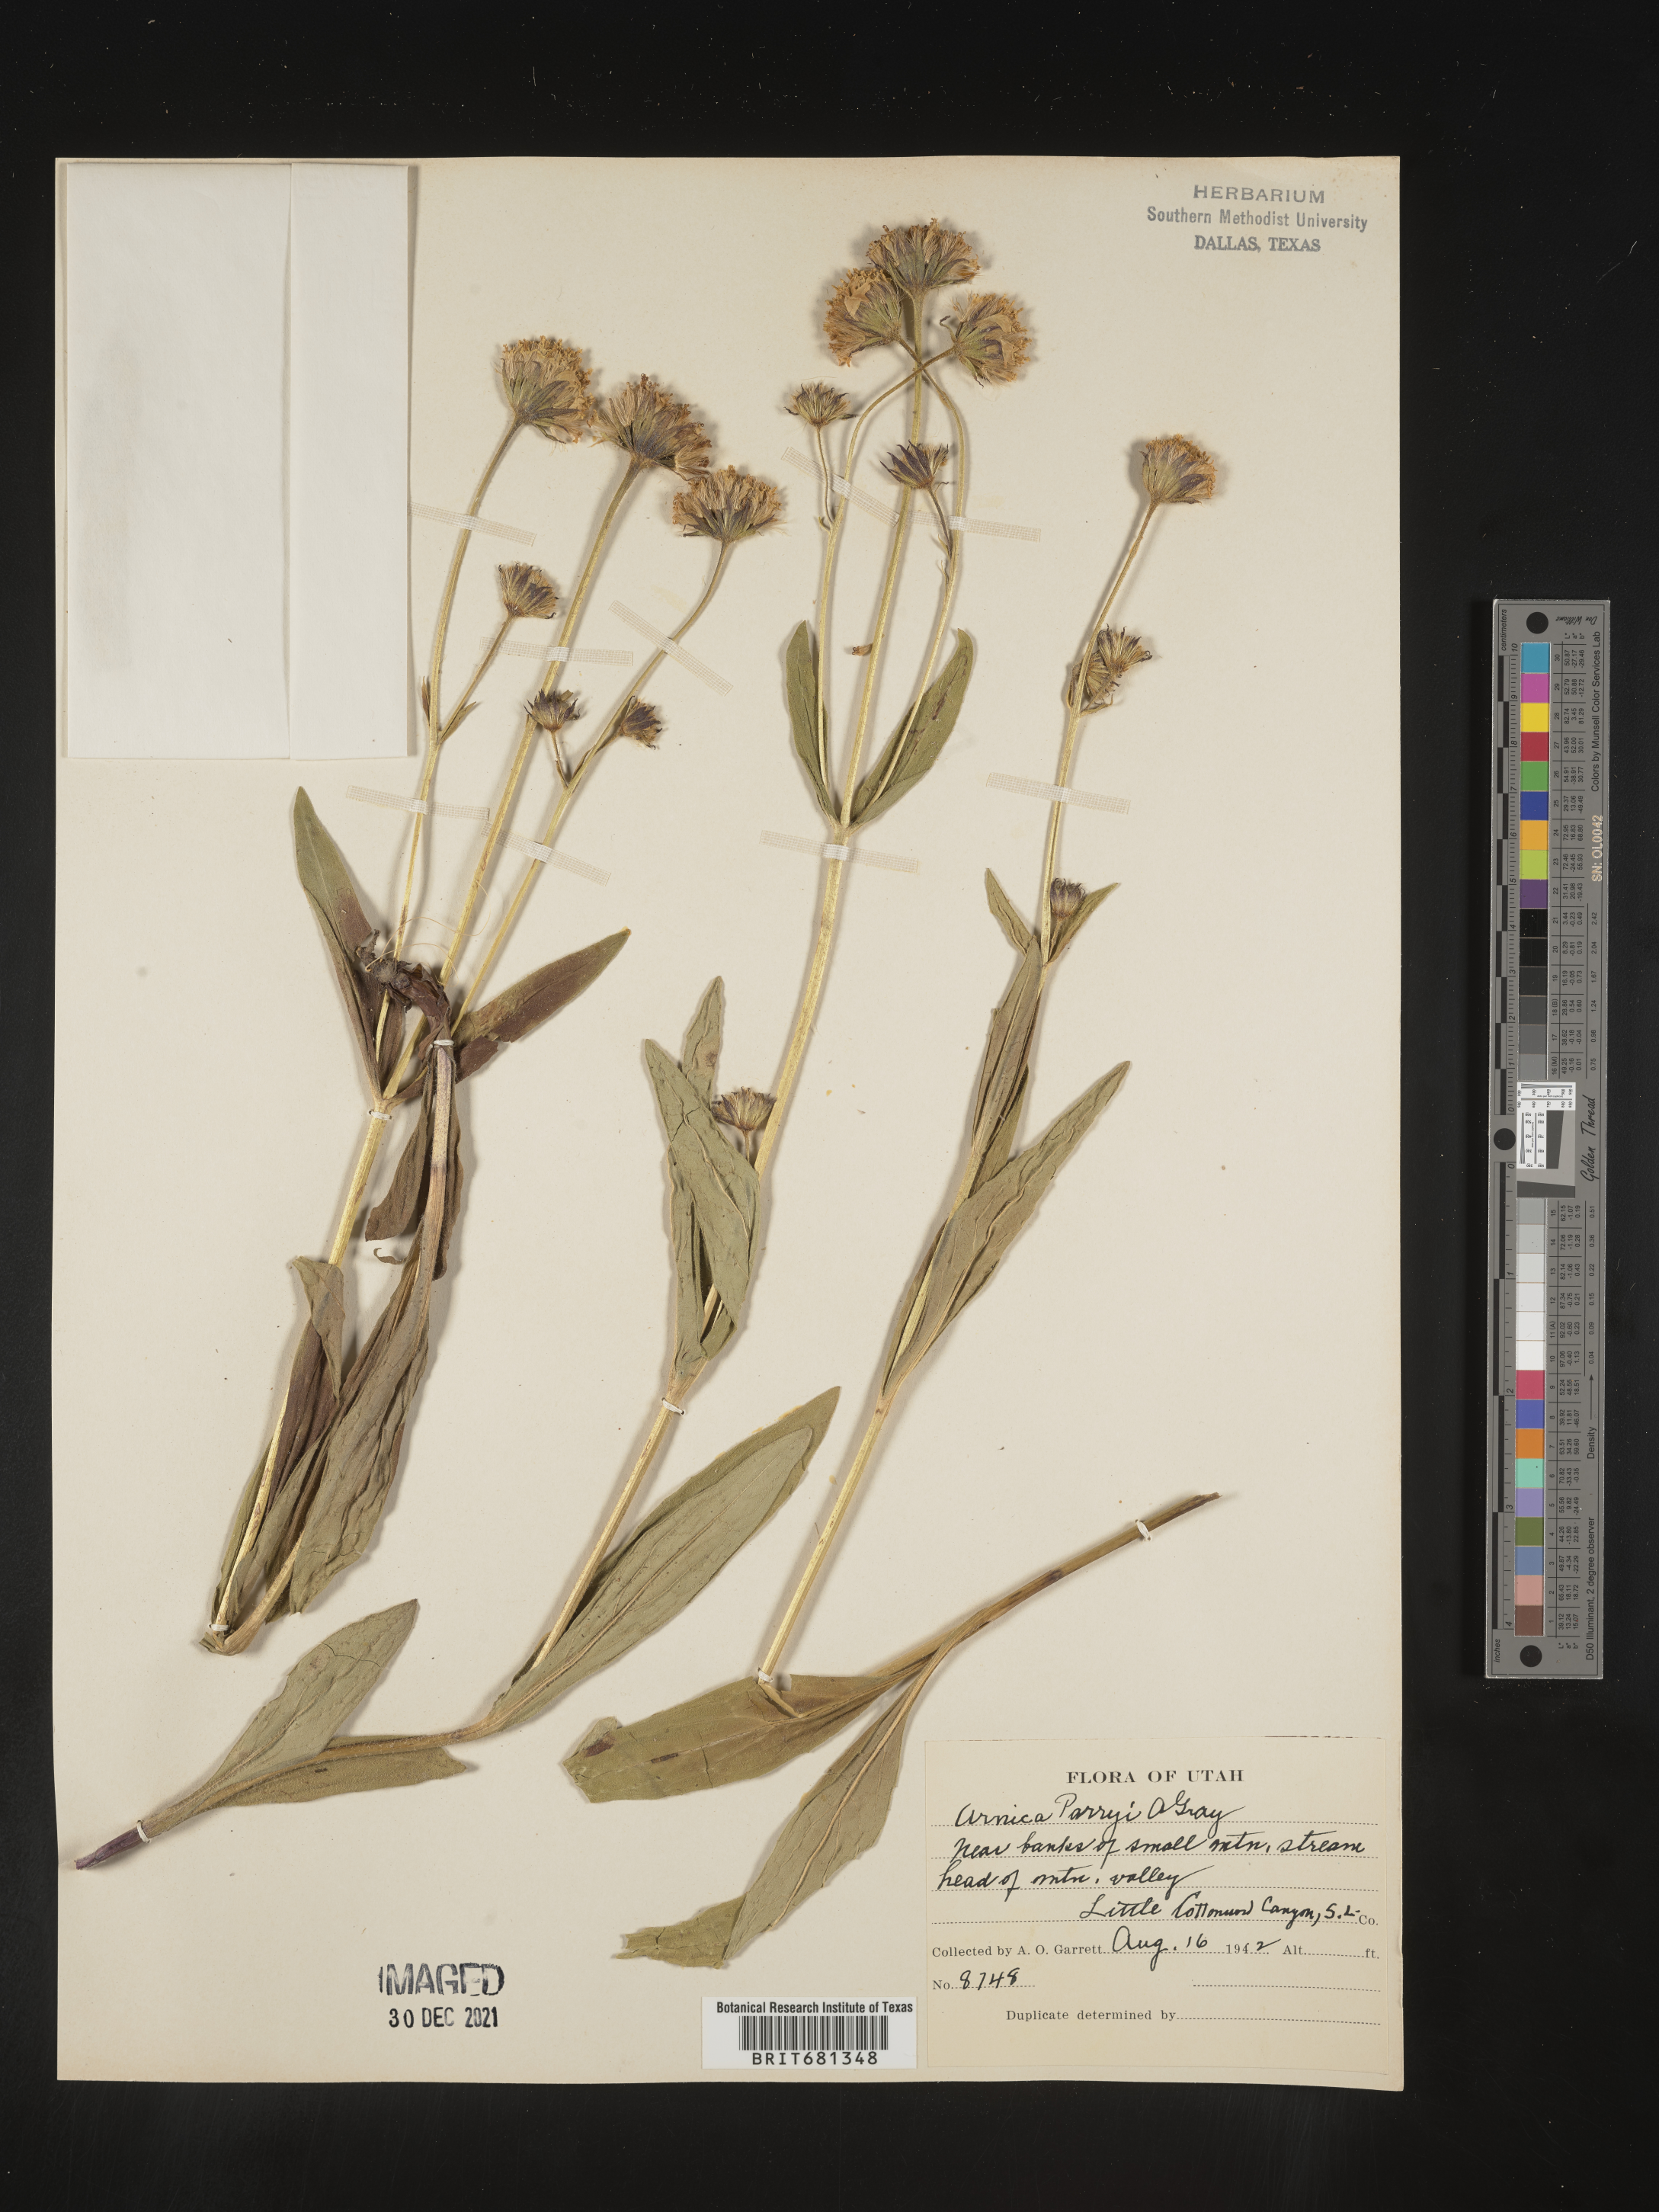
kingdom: Plantae
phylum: Tracheophyta
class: Magnoliopsida
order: Asterales
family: Asteraceae
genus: Arnica
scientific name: Arnica parryi
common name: Parry's arnica
